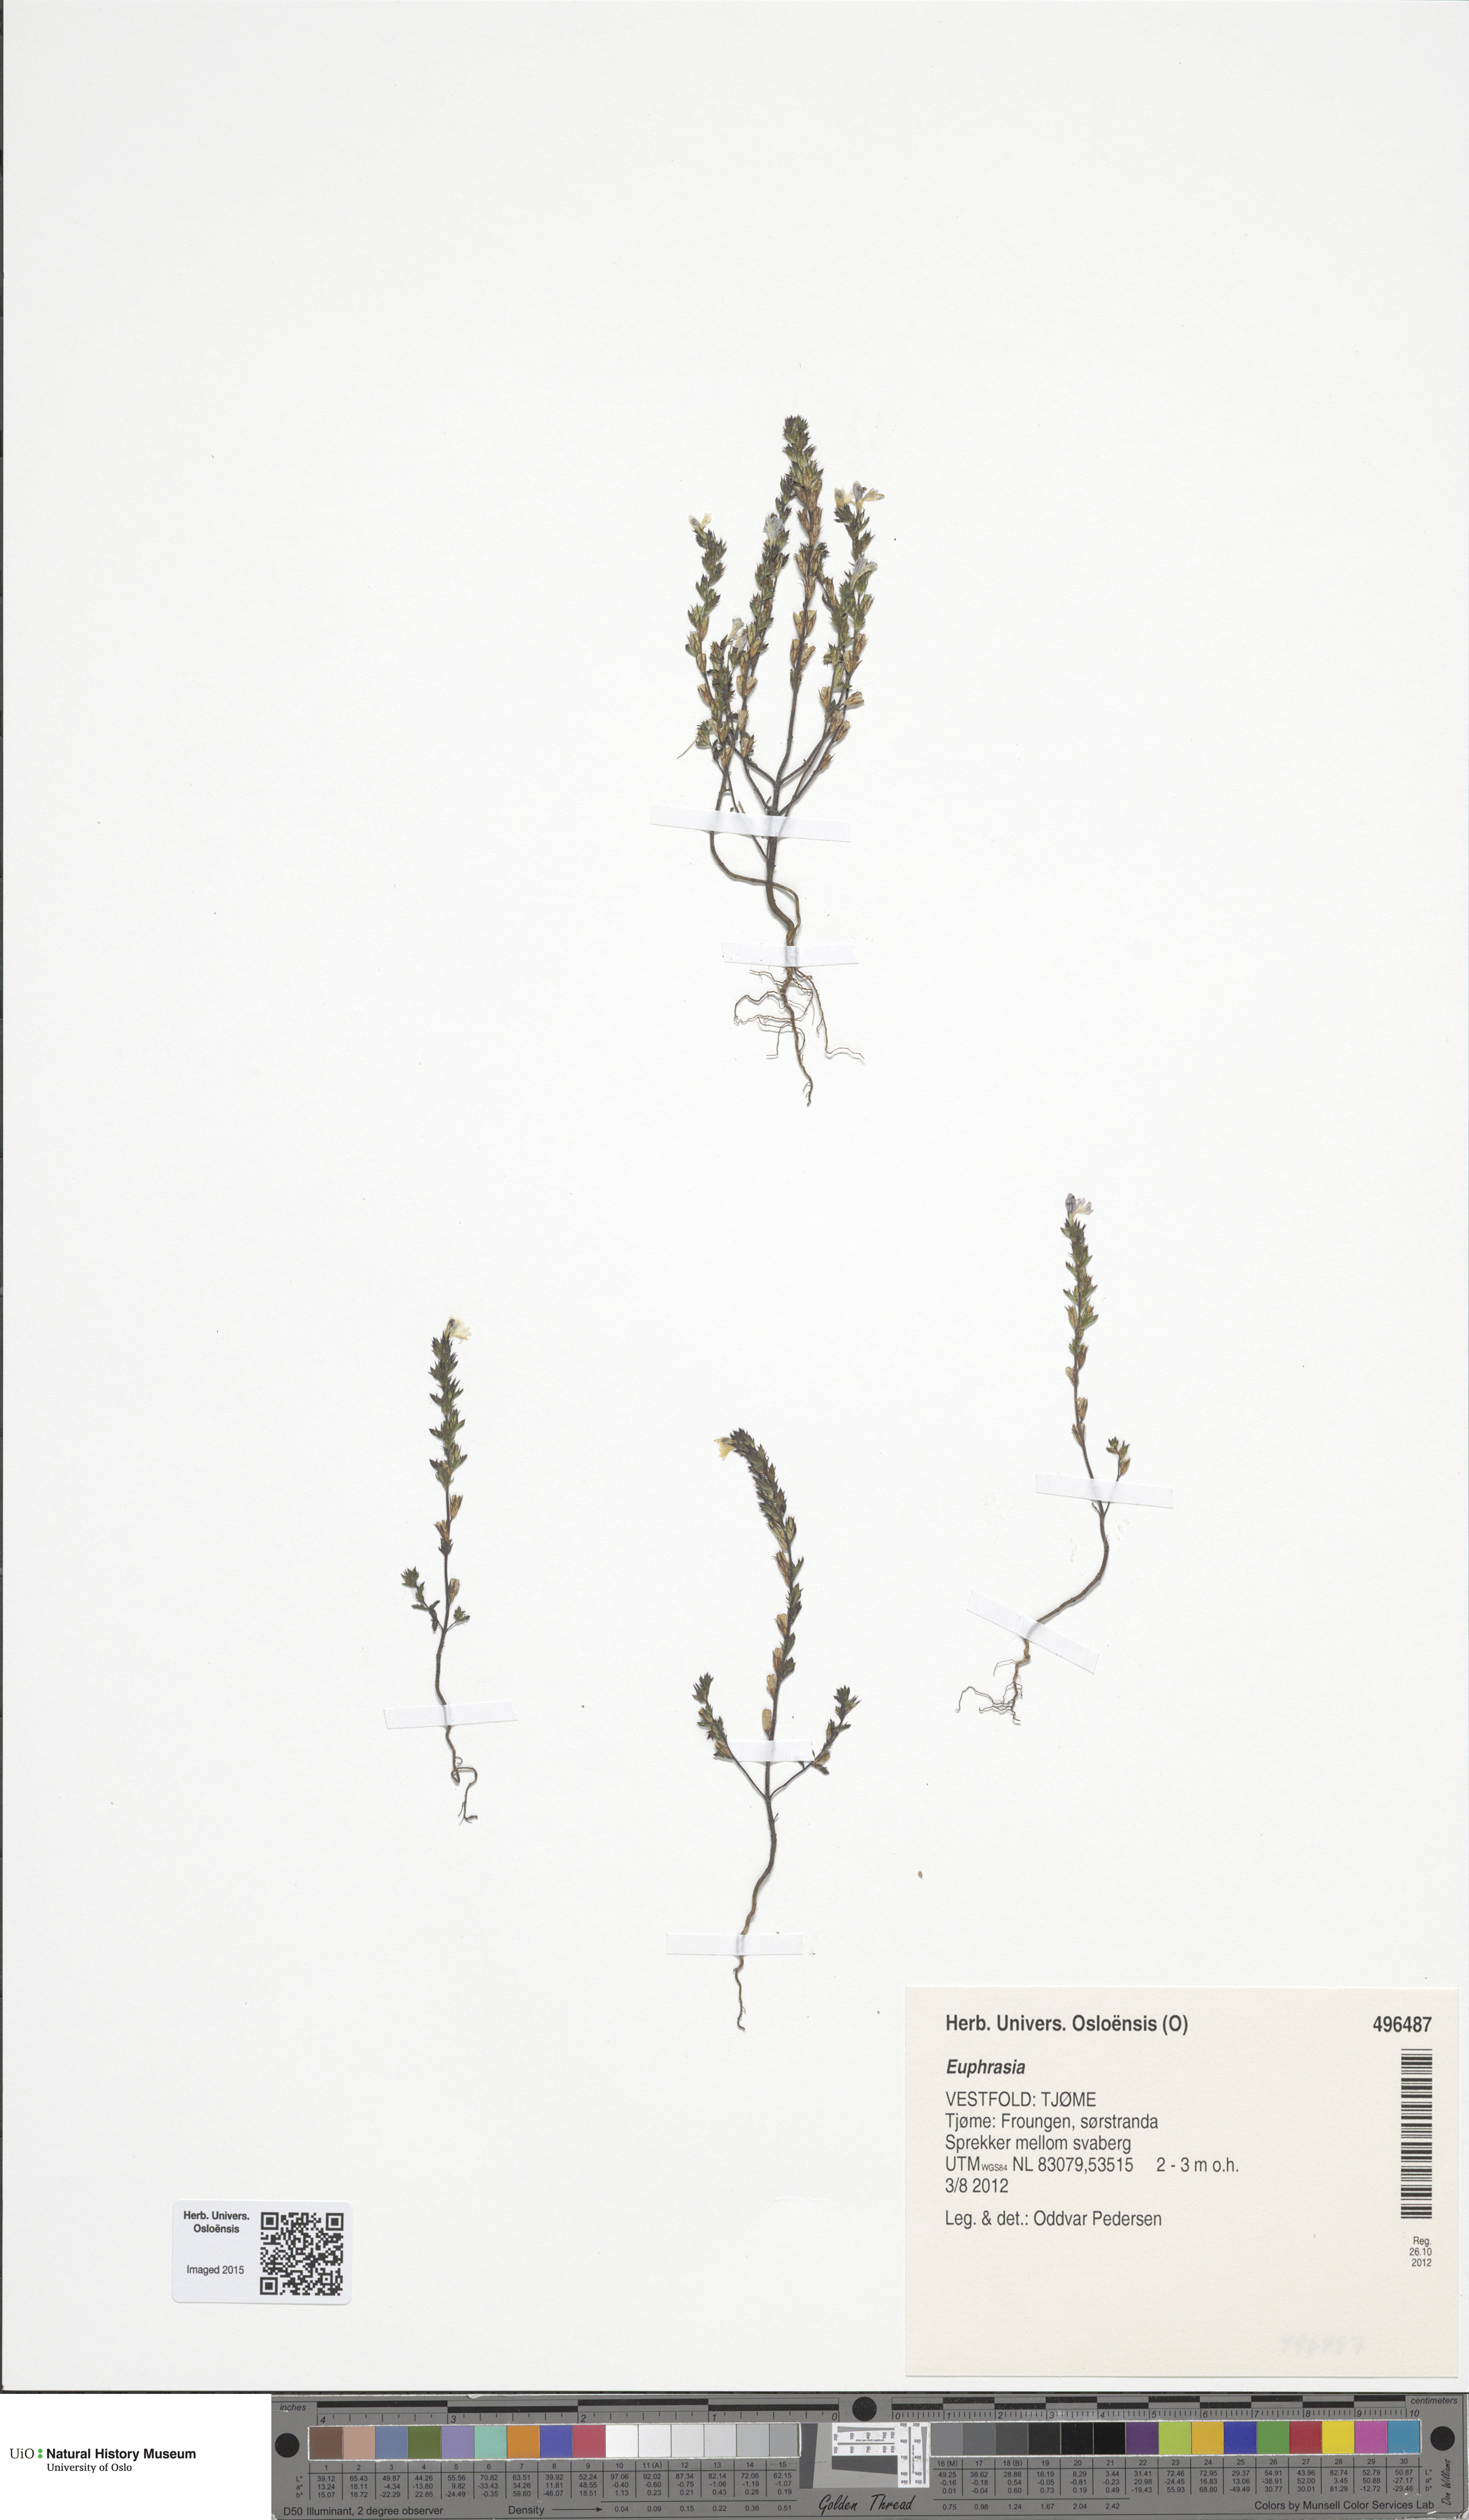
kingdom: Plantae
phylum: Tracheophyta
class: Magnoliopsida
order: Lamiales
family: Orobanchaceae
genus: Euphrasia
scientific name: Euphrasia micrantha
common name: Northern eyebright
